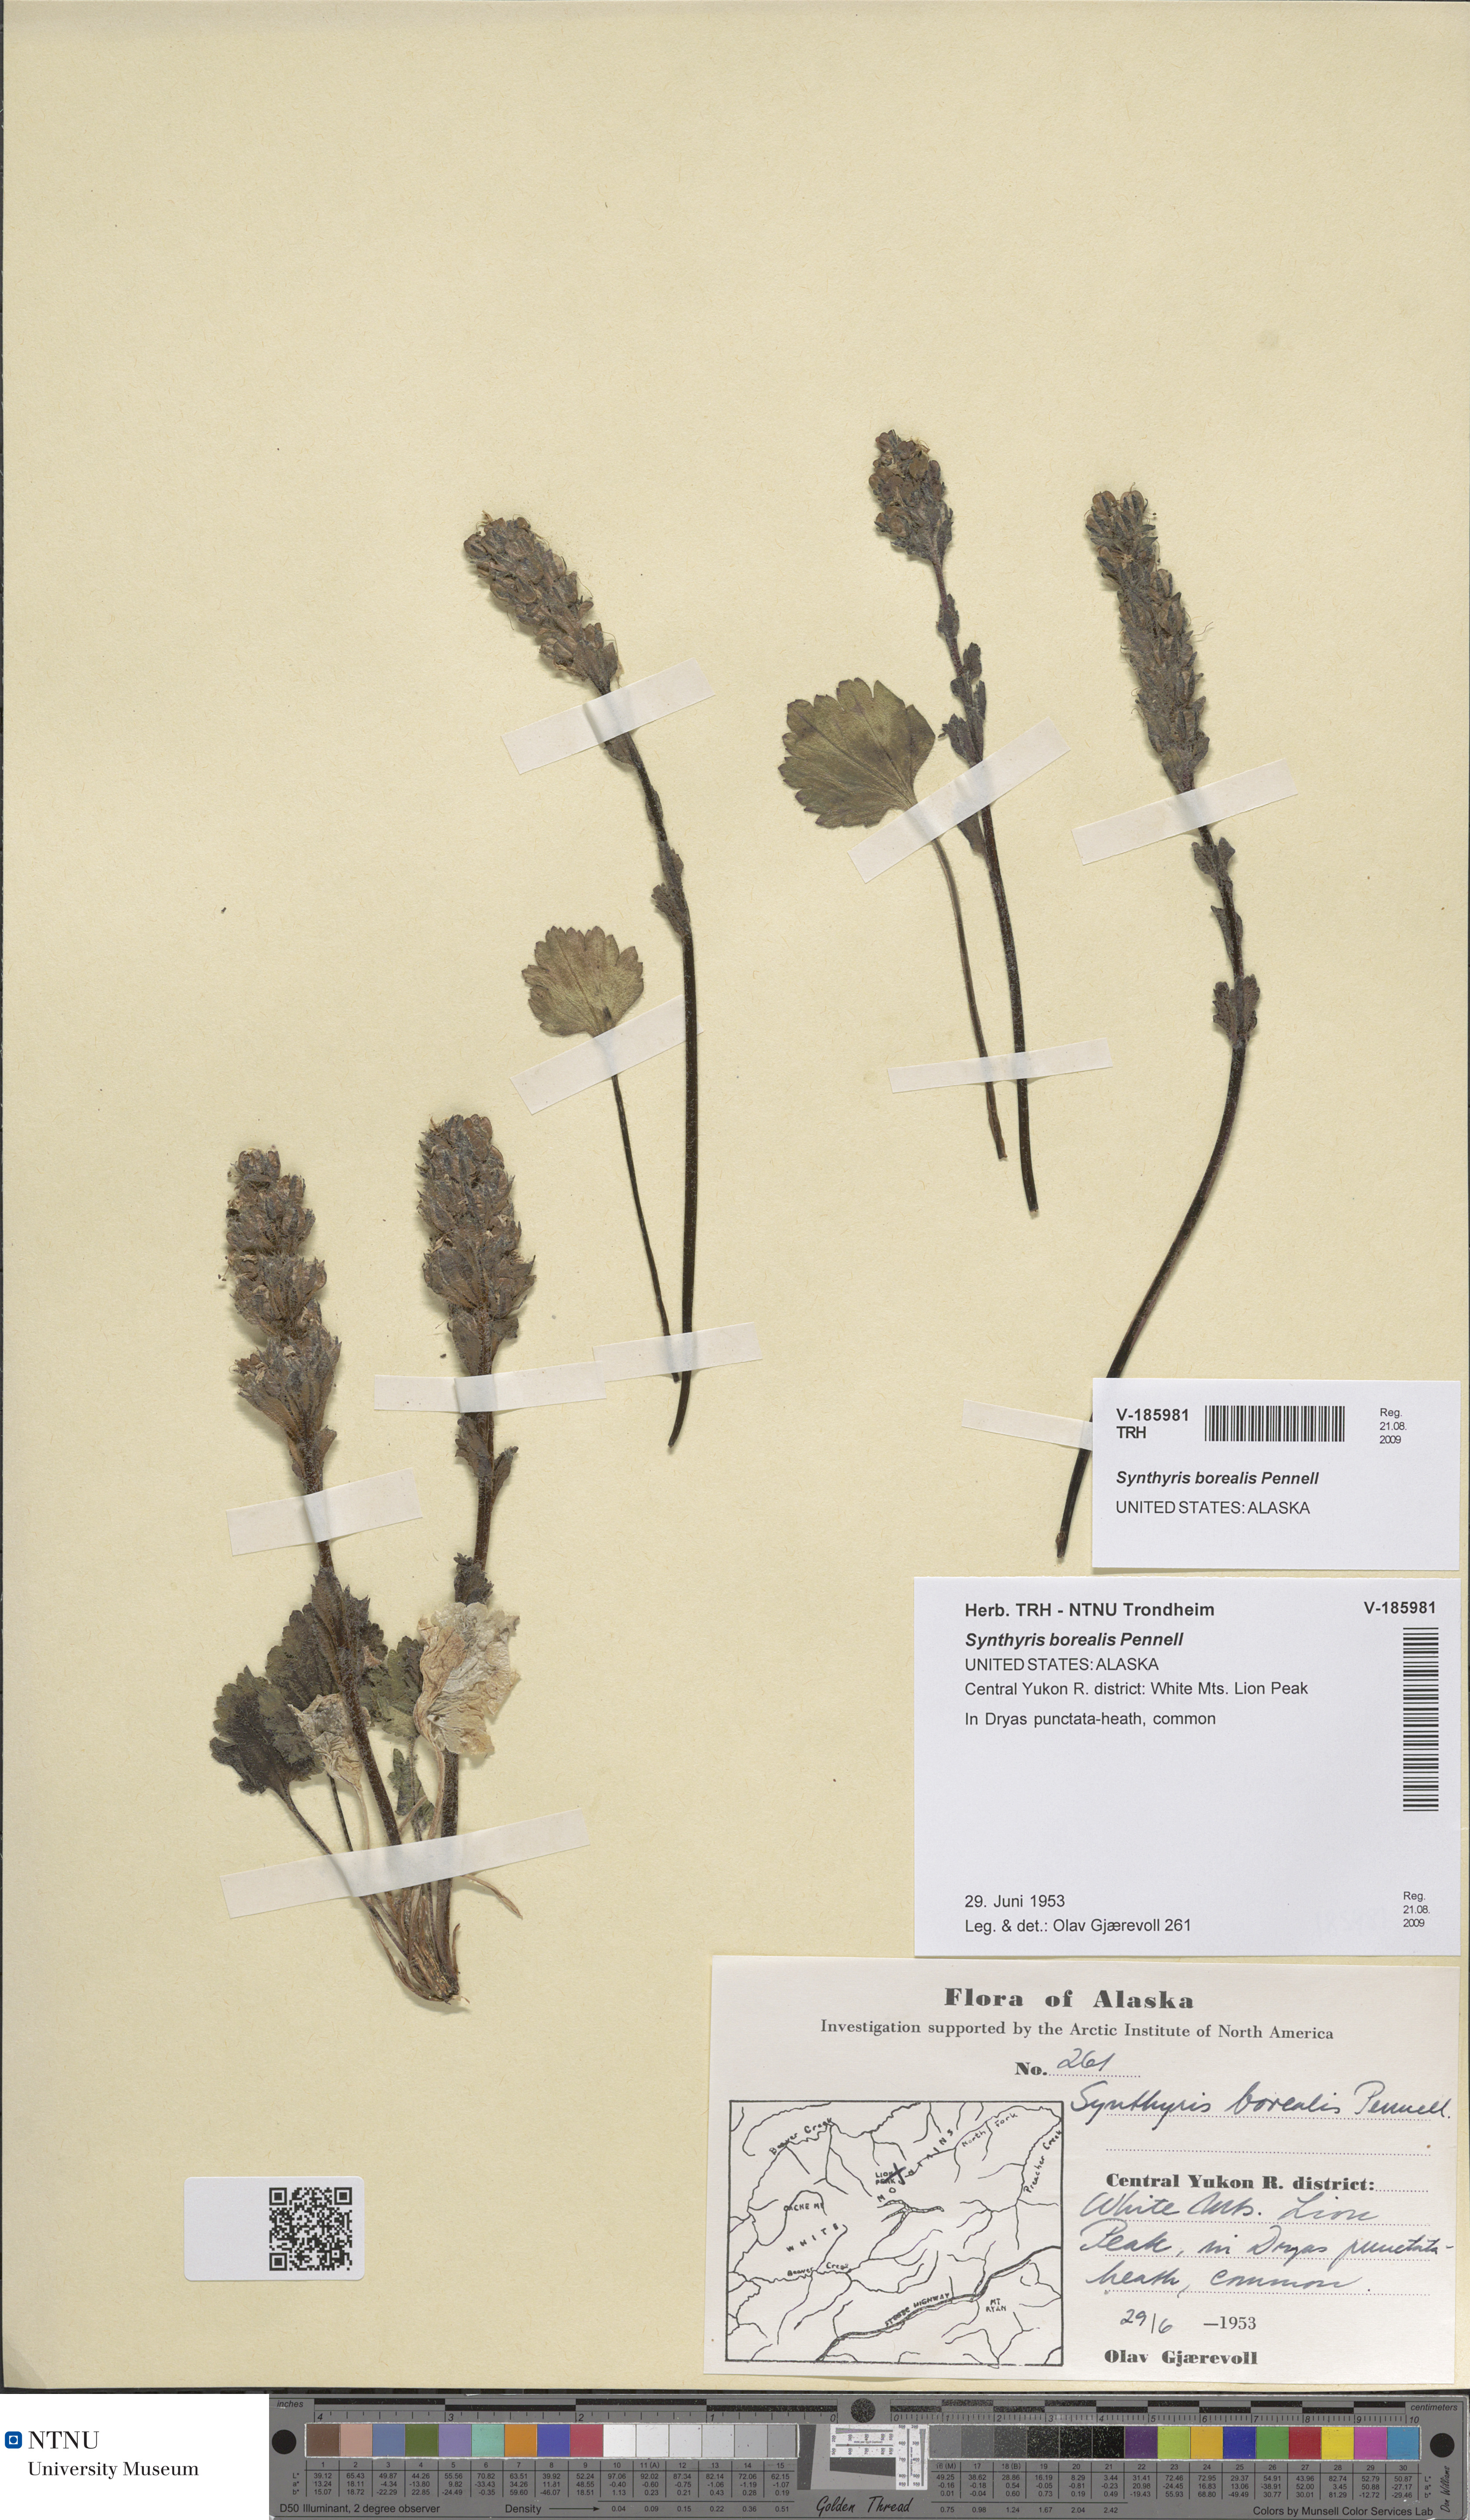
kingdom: Plantae
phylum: Tracheophyta
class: Magnoliopsida
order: Lamiales
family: Plantaginaceae
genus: Synthyris
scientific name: Synthyris borealis
